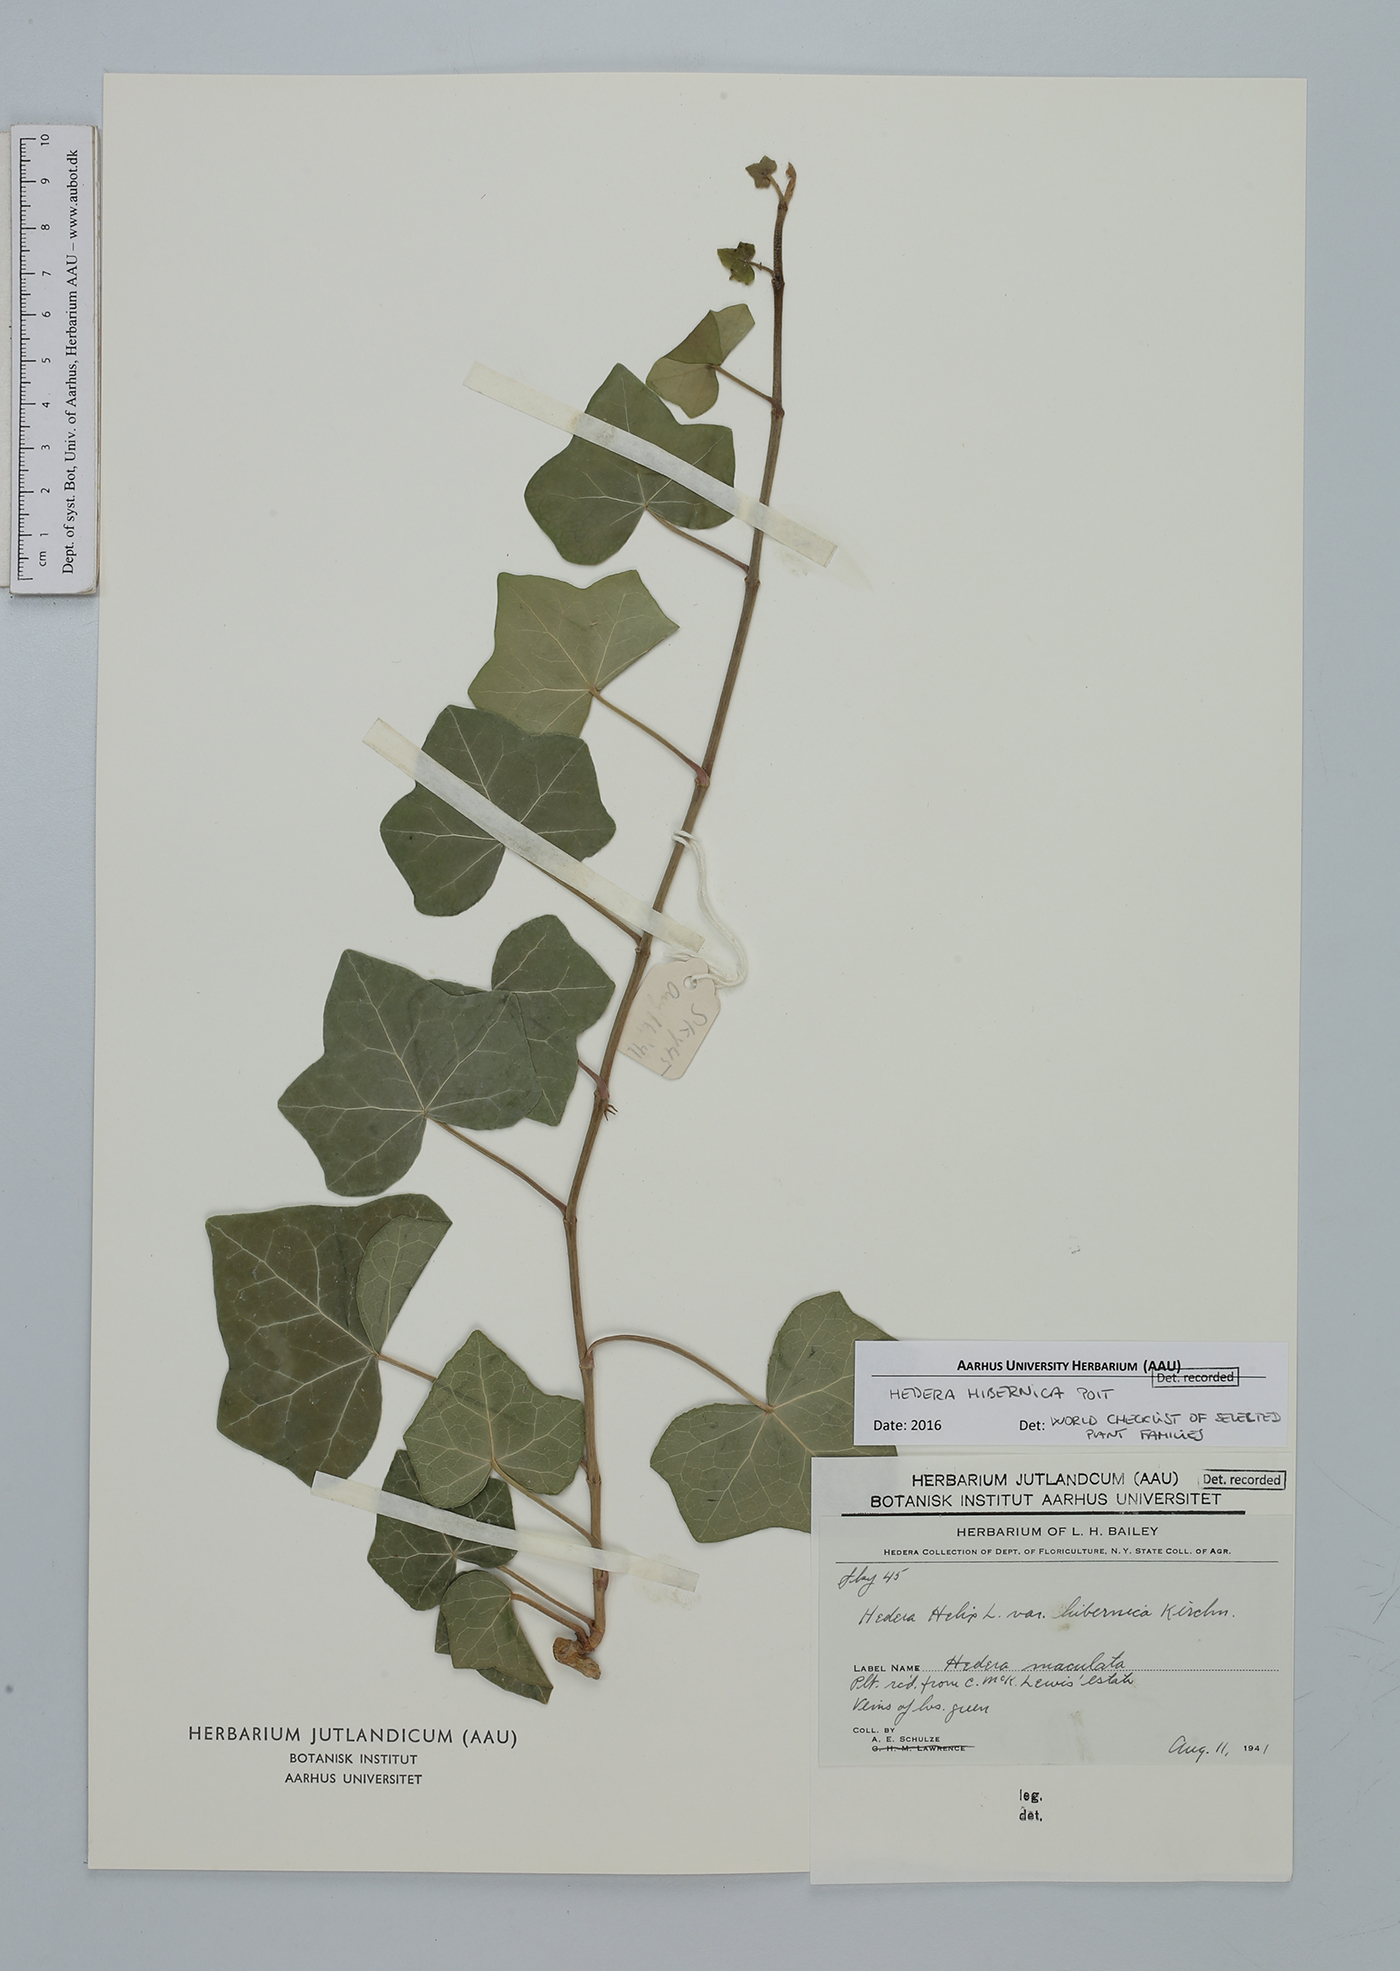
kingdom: Plantae
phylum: Tracheophyta
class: Magnoliopsida
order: Apiales
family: Araliaceae
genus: Hedera
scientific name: Hedera hibernica
